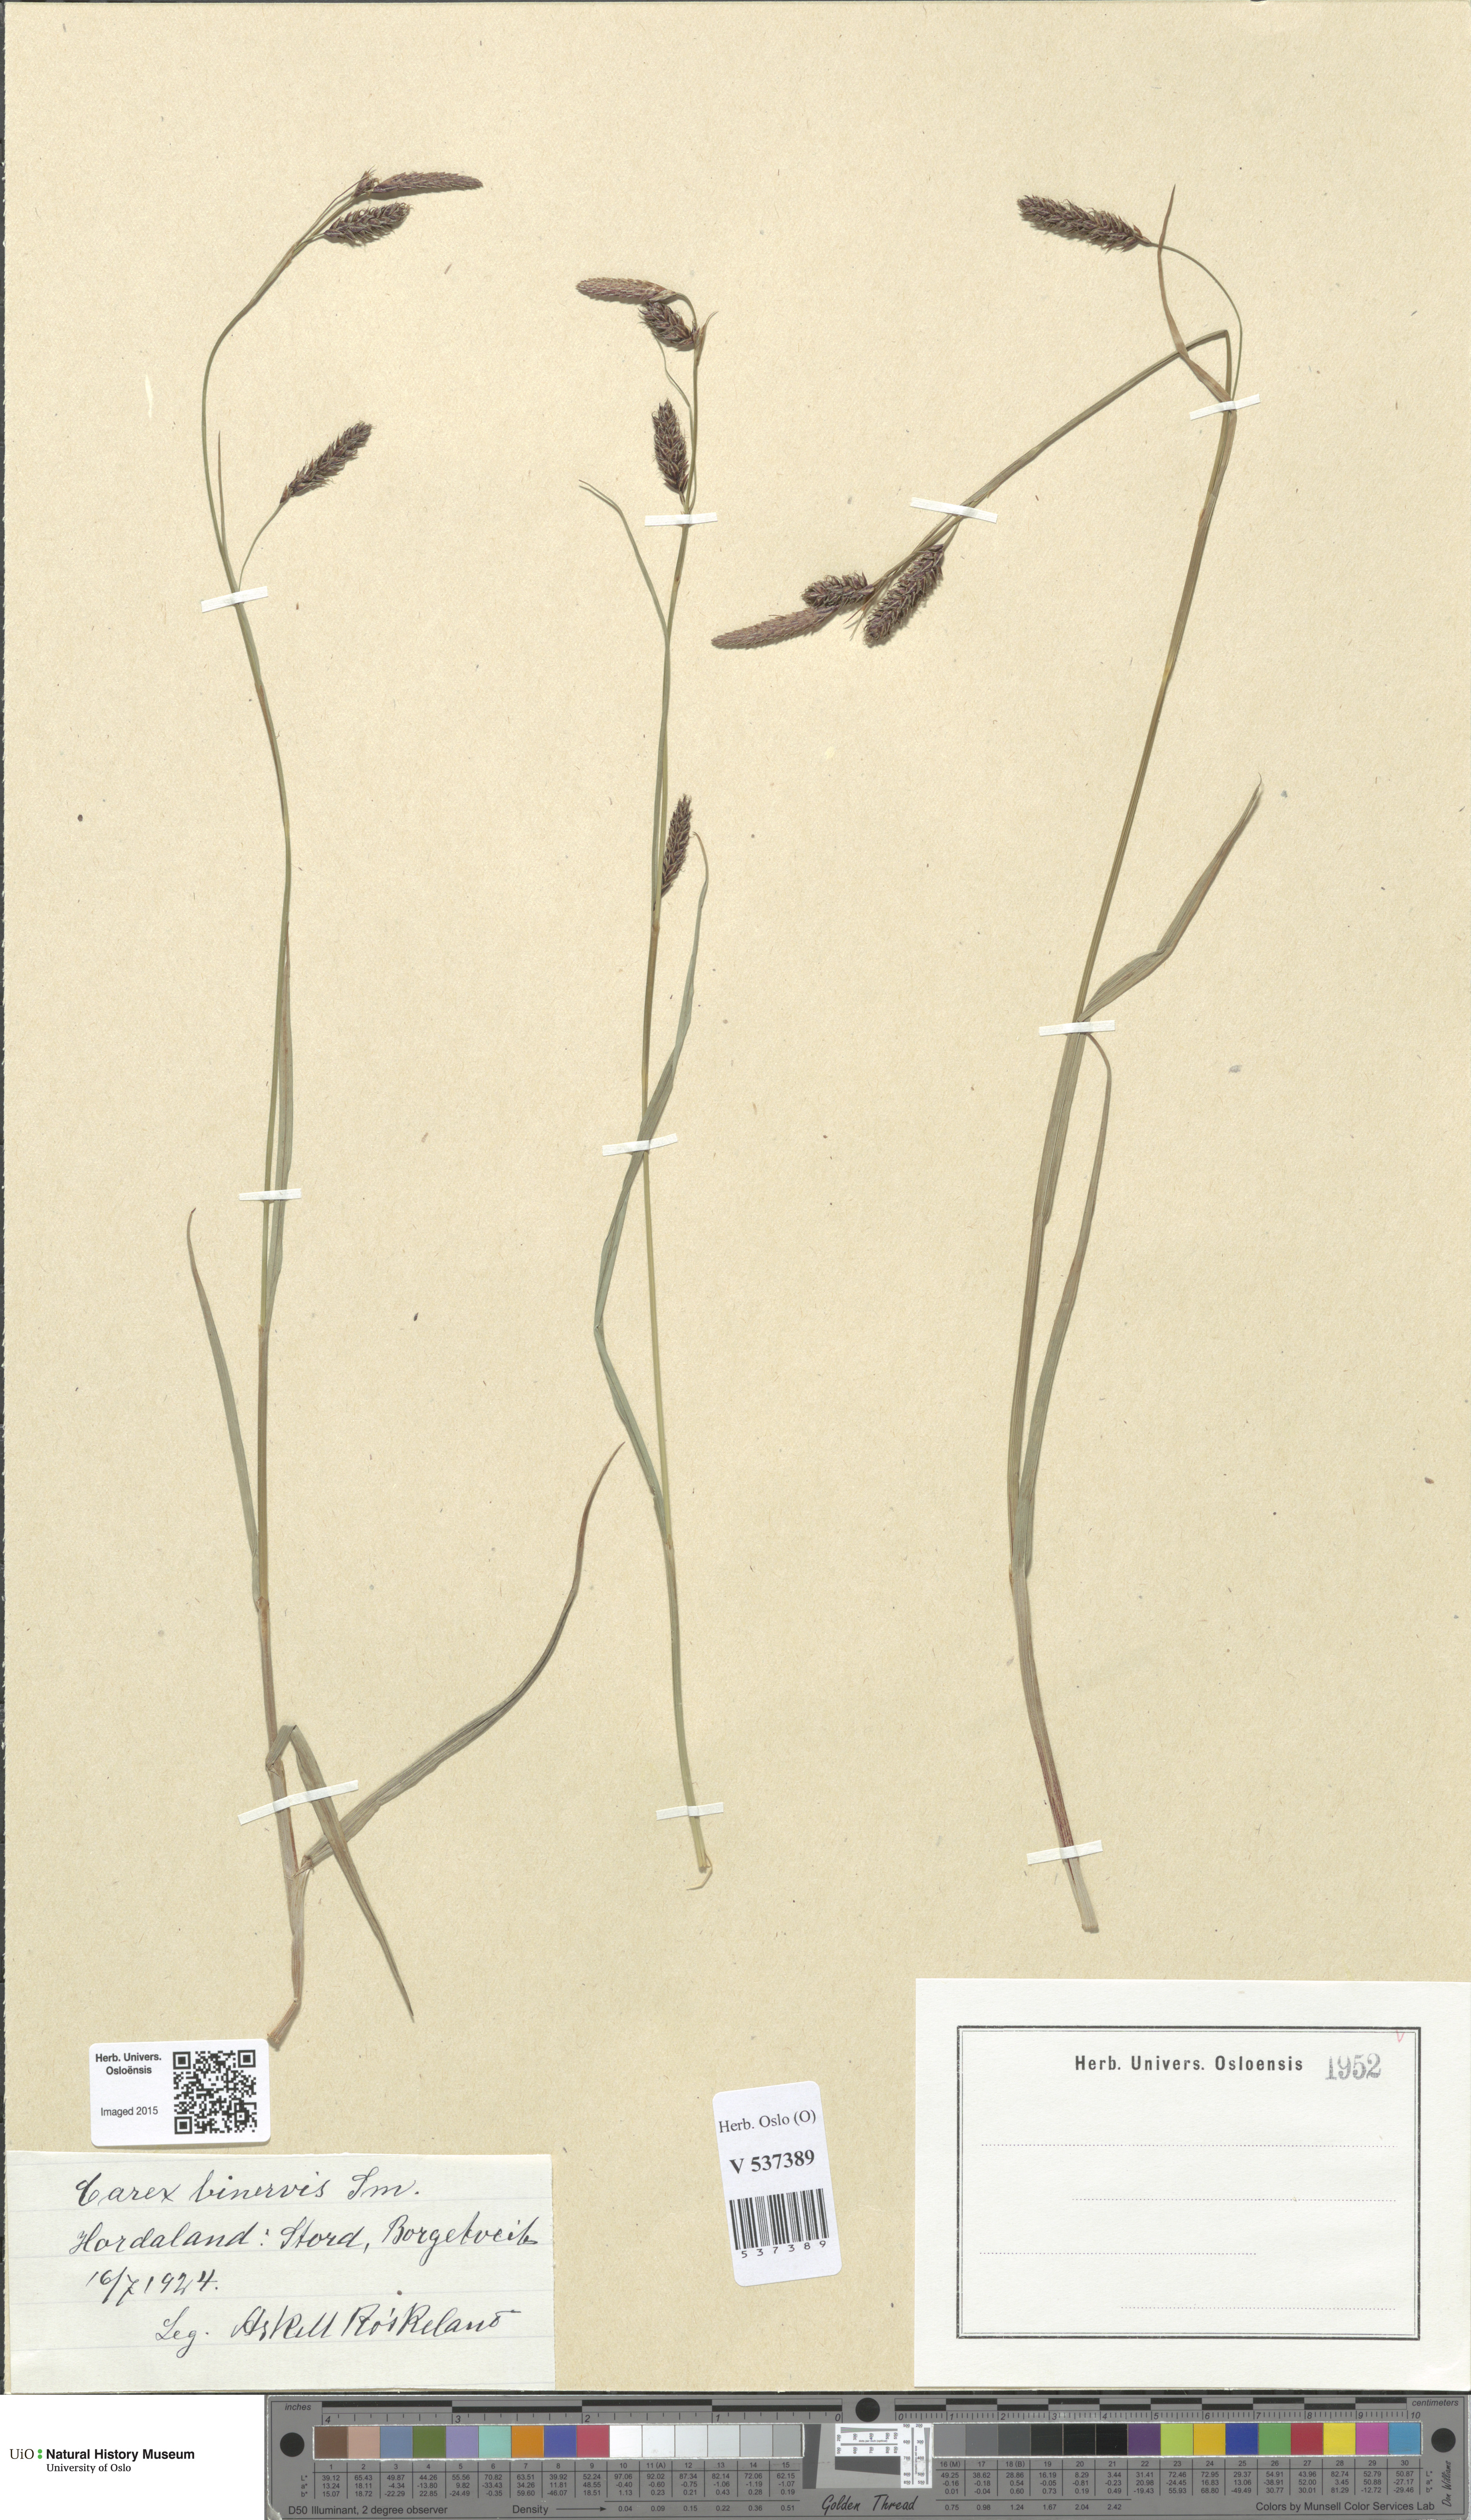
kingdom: Plantae
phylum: Tracheophyta
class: Liliopsida
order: Poales
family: Cyperaceae
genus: Carex
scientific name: Carex binervis
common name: Green-ribbed sedge
